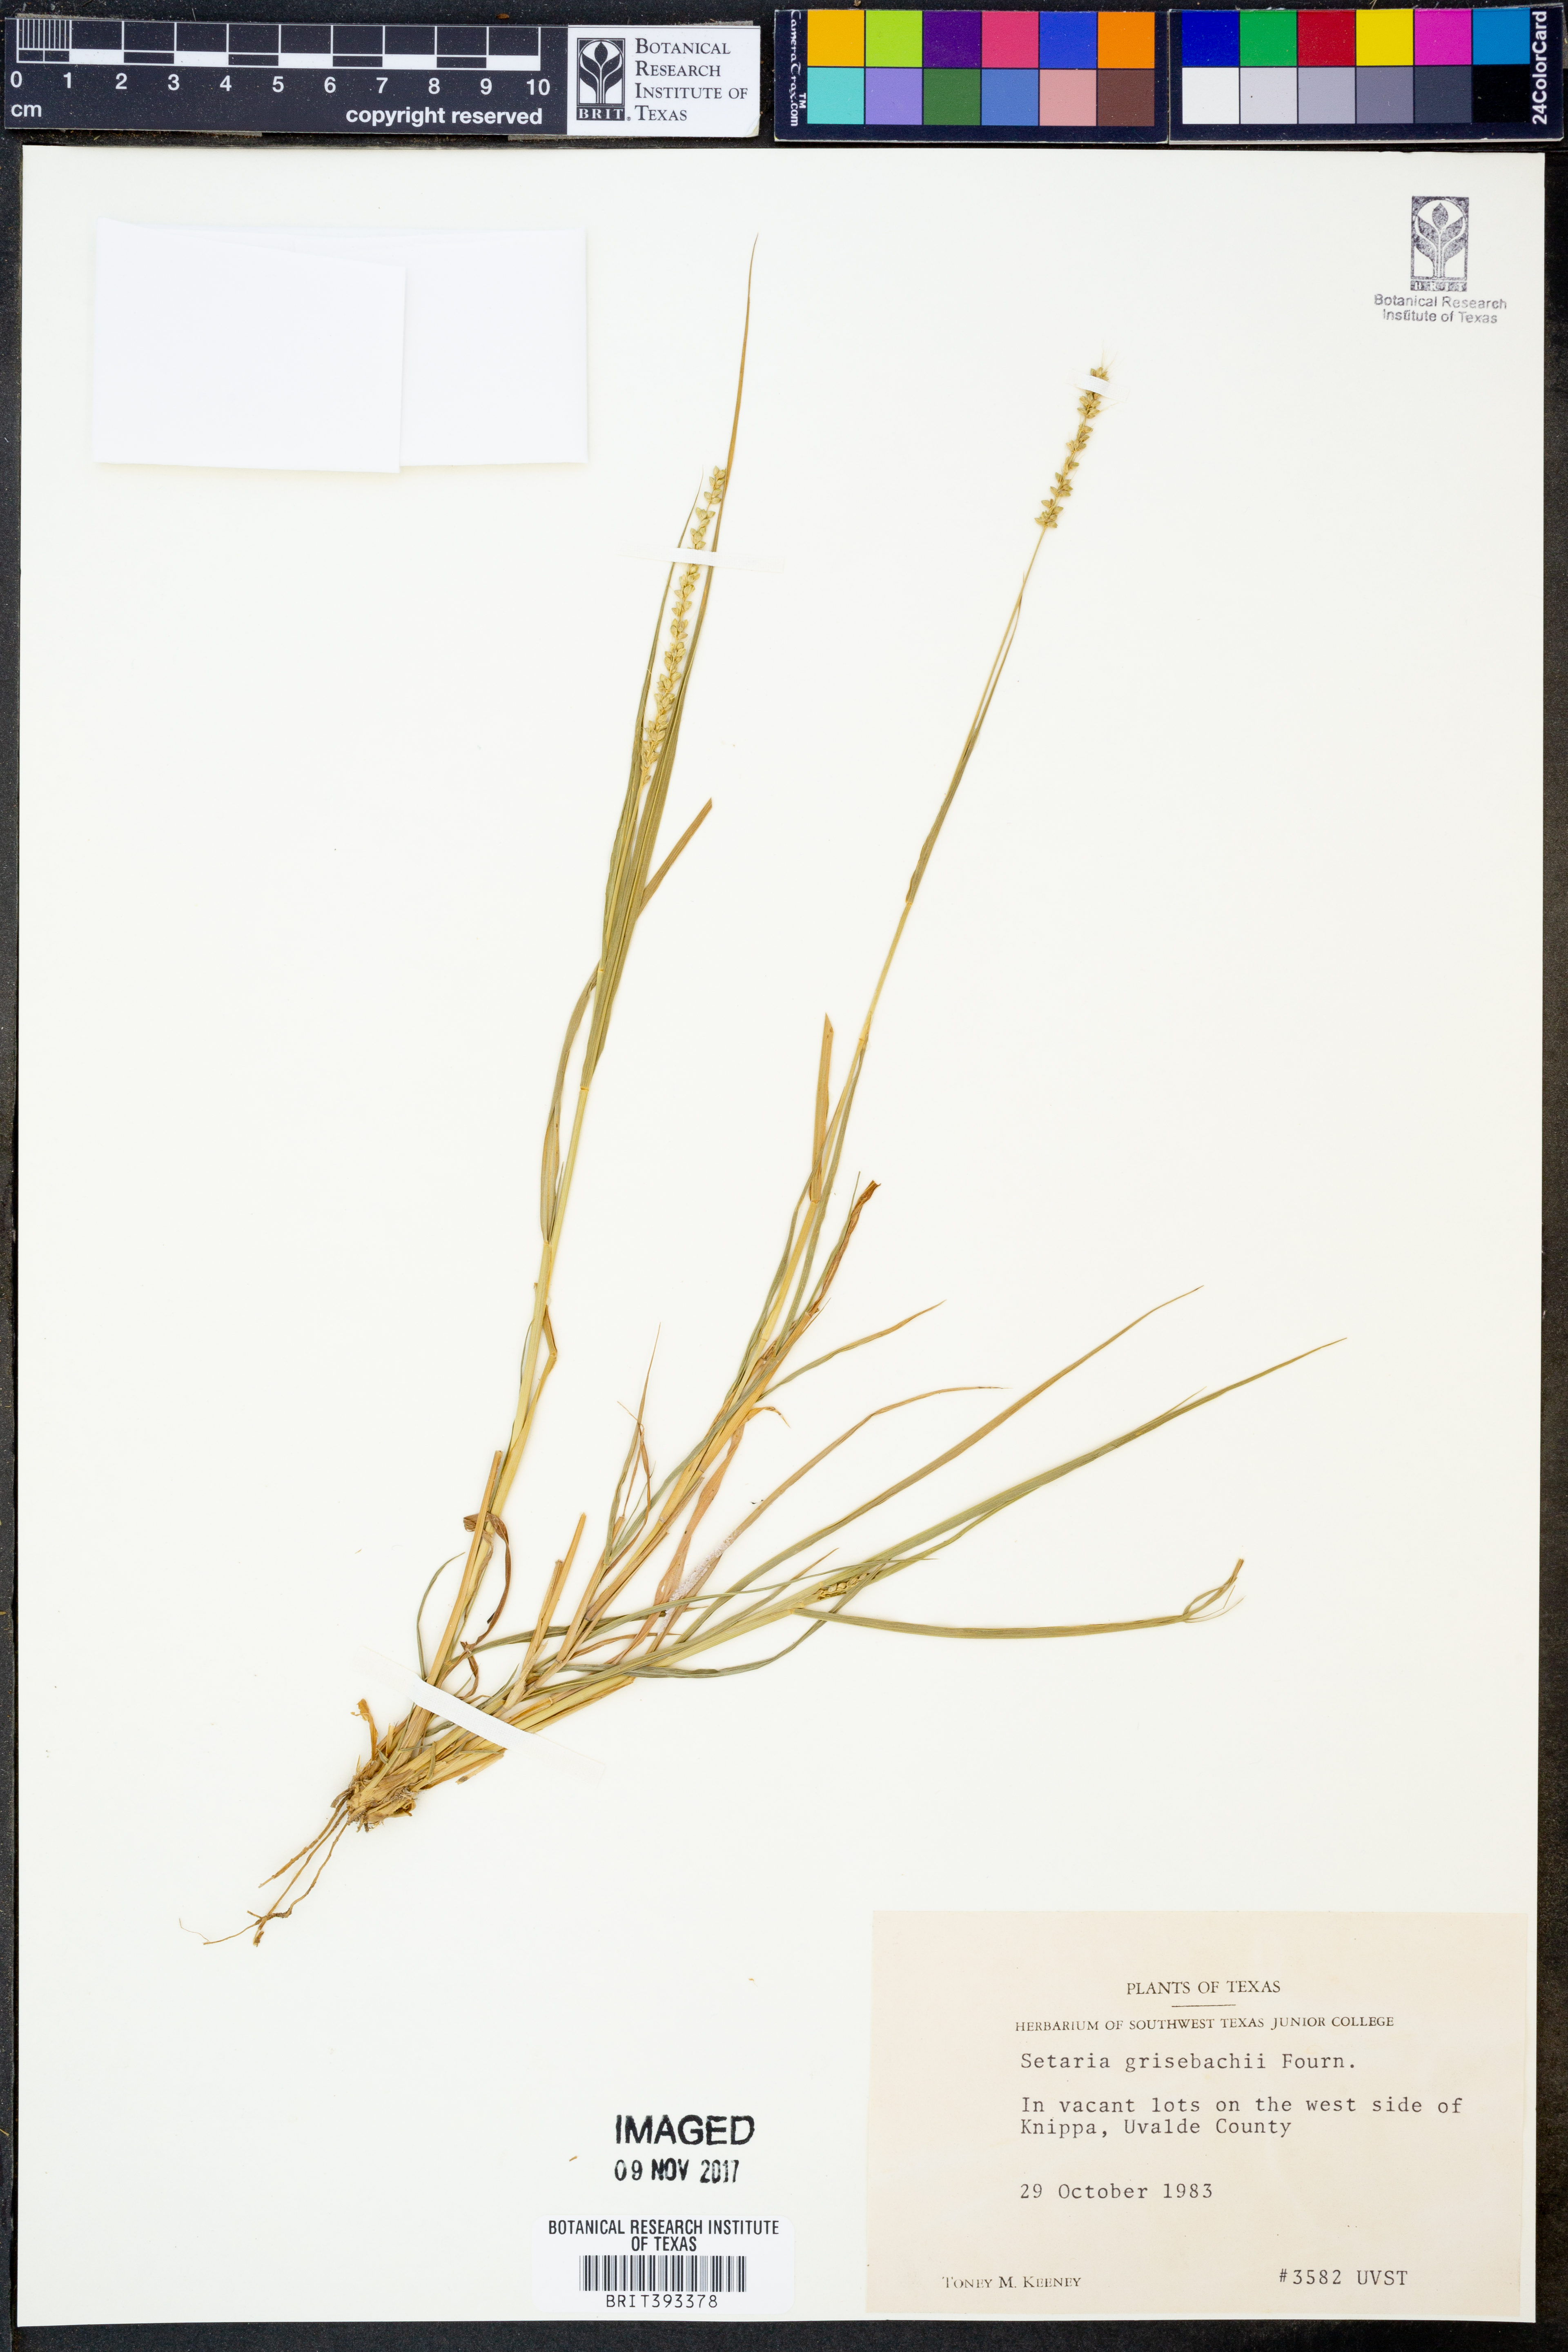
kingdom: Plantae
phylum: Tracheophyta
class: Liliopsida
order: Poales
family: Poaceae
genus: Setaria
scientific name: Setaria grisebachii
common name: Grisebach's bristle grass
